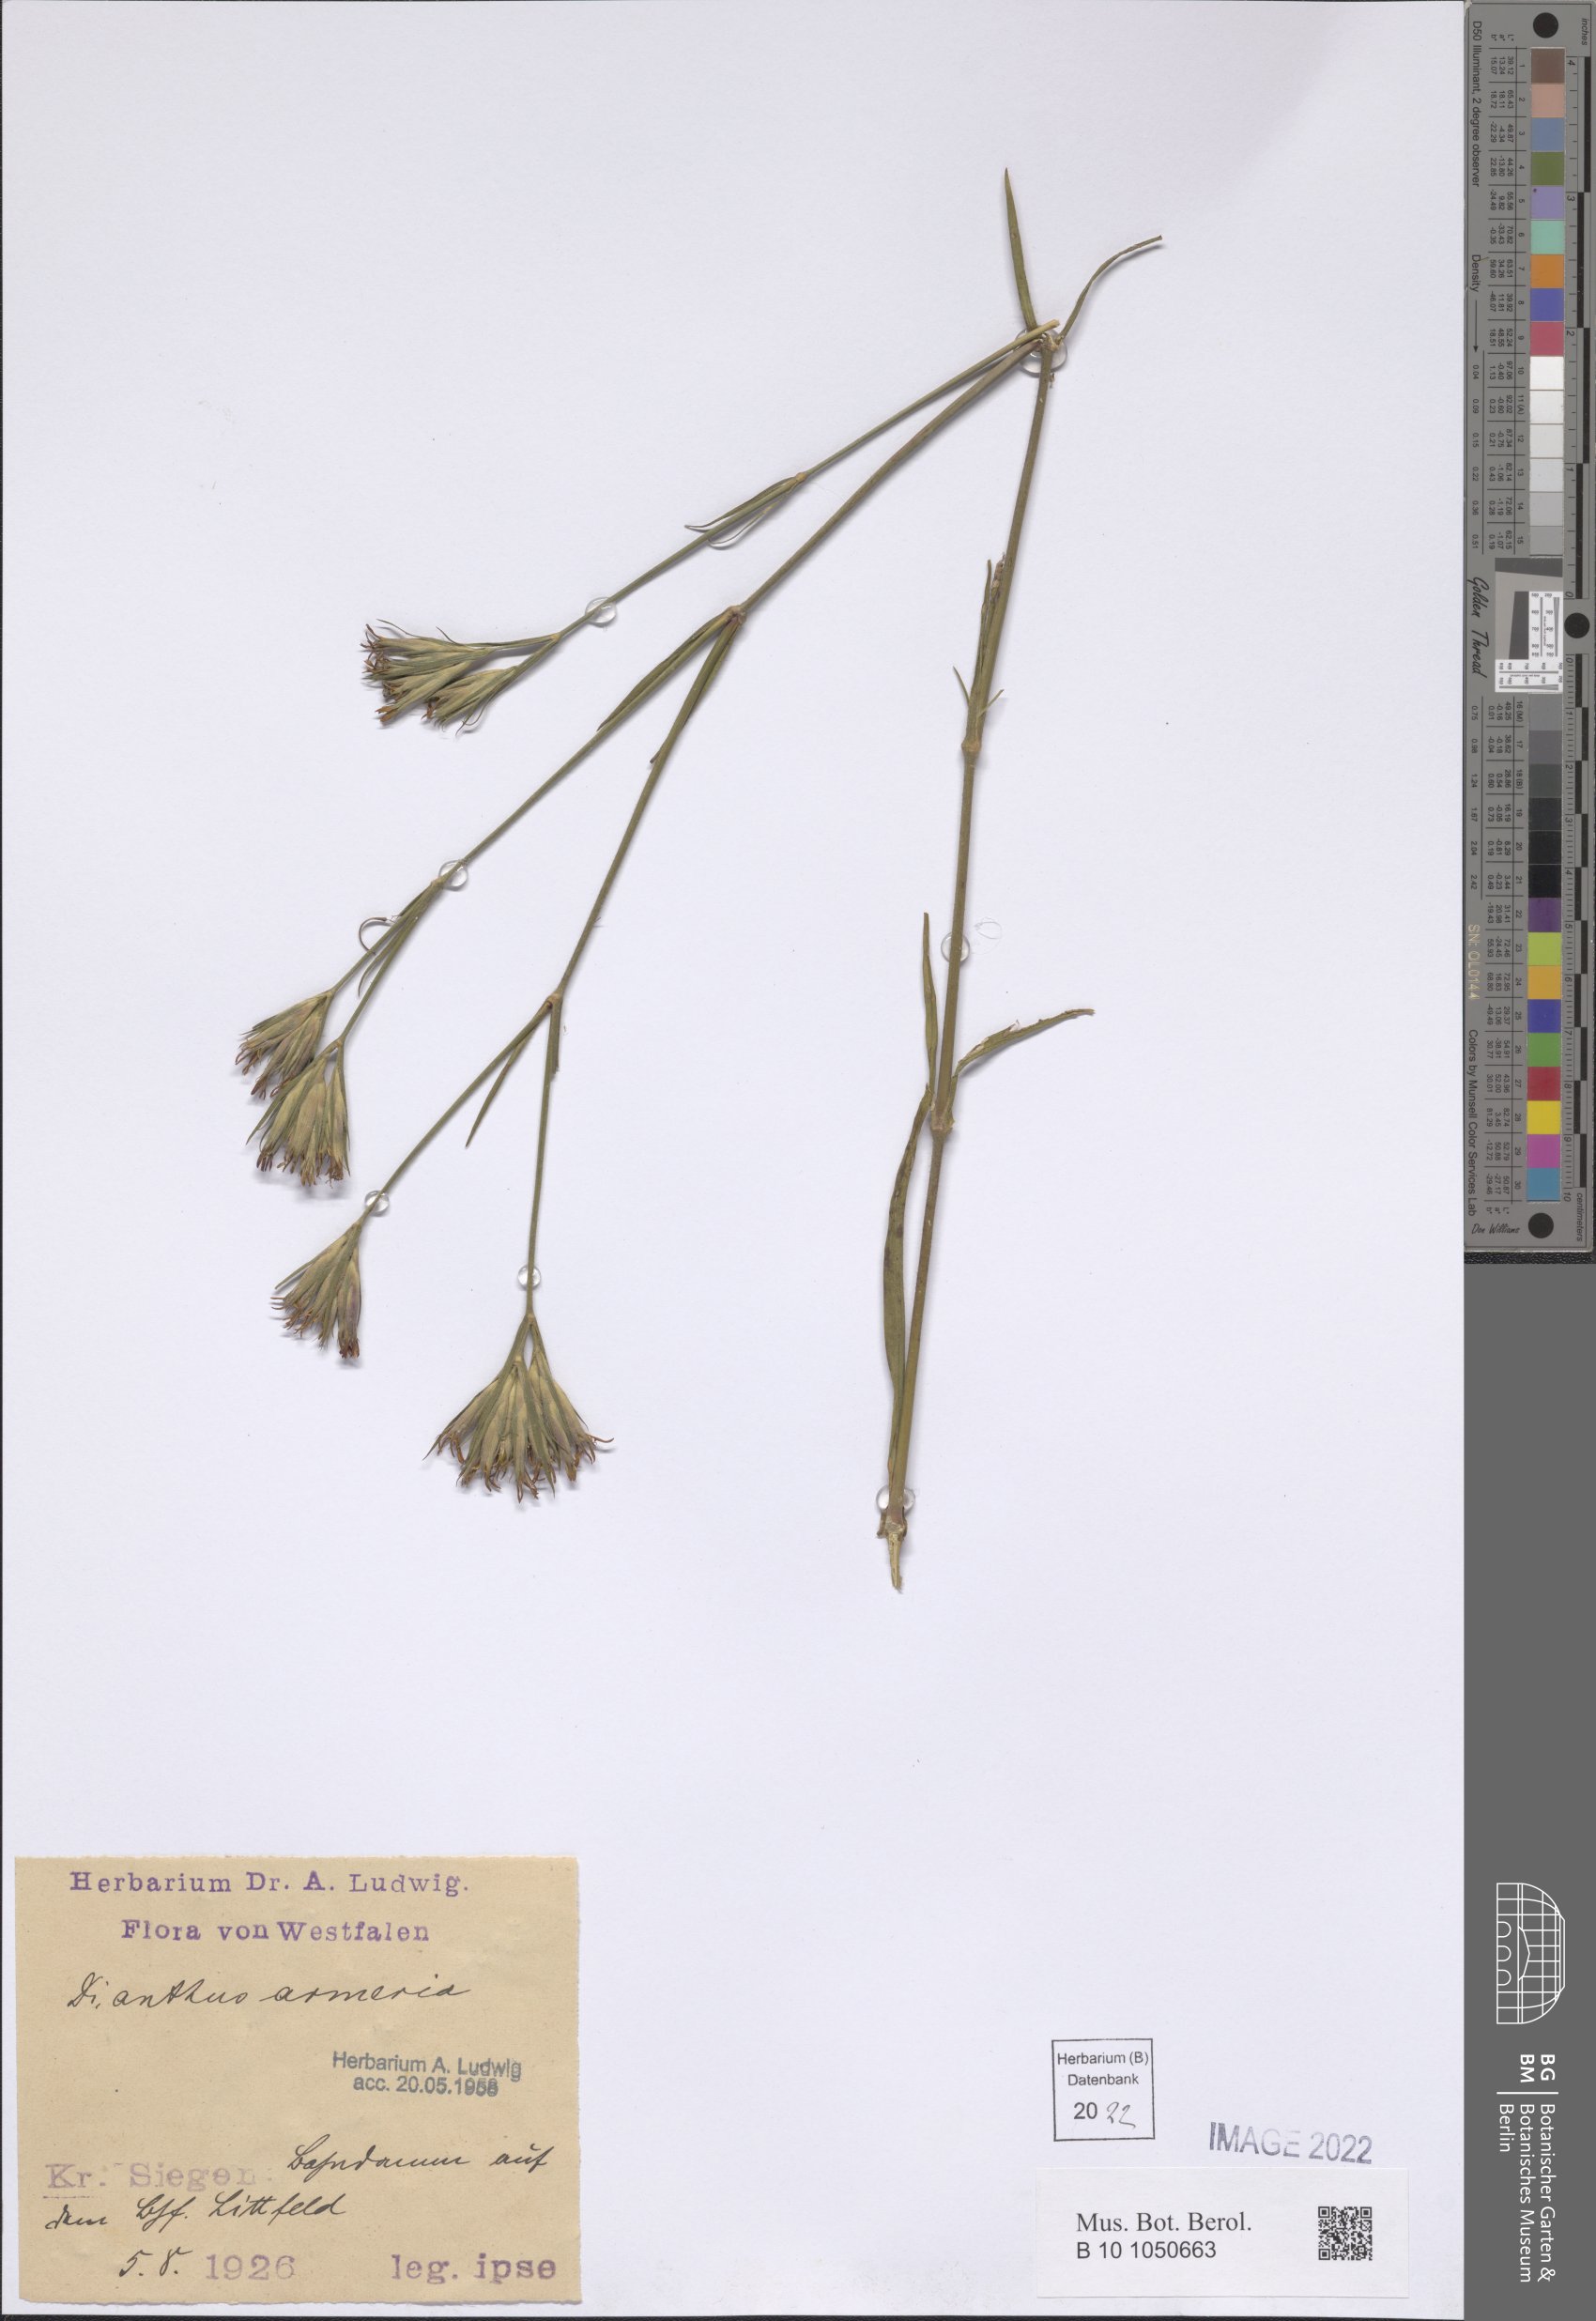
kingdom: Plantae
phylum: Tracheophyta
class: Magnoliopsida
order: Caryophyllales
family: Caryophyllaceae
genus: Dianthus
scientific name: Dianthus armeria
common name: Deptford pink
